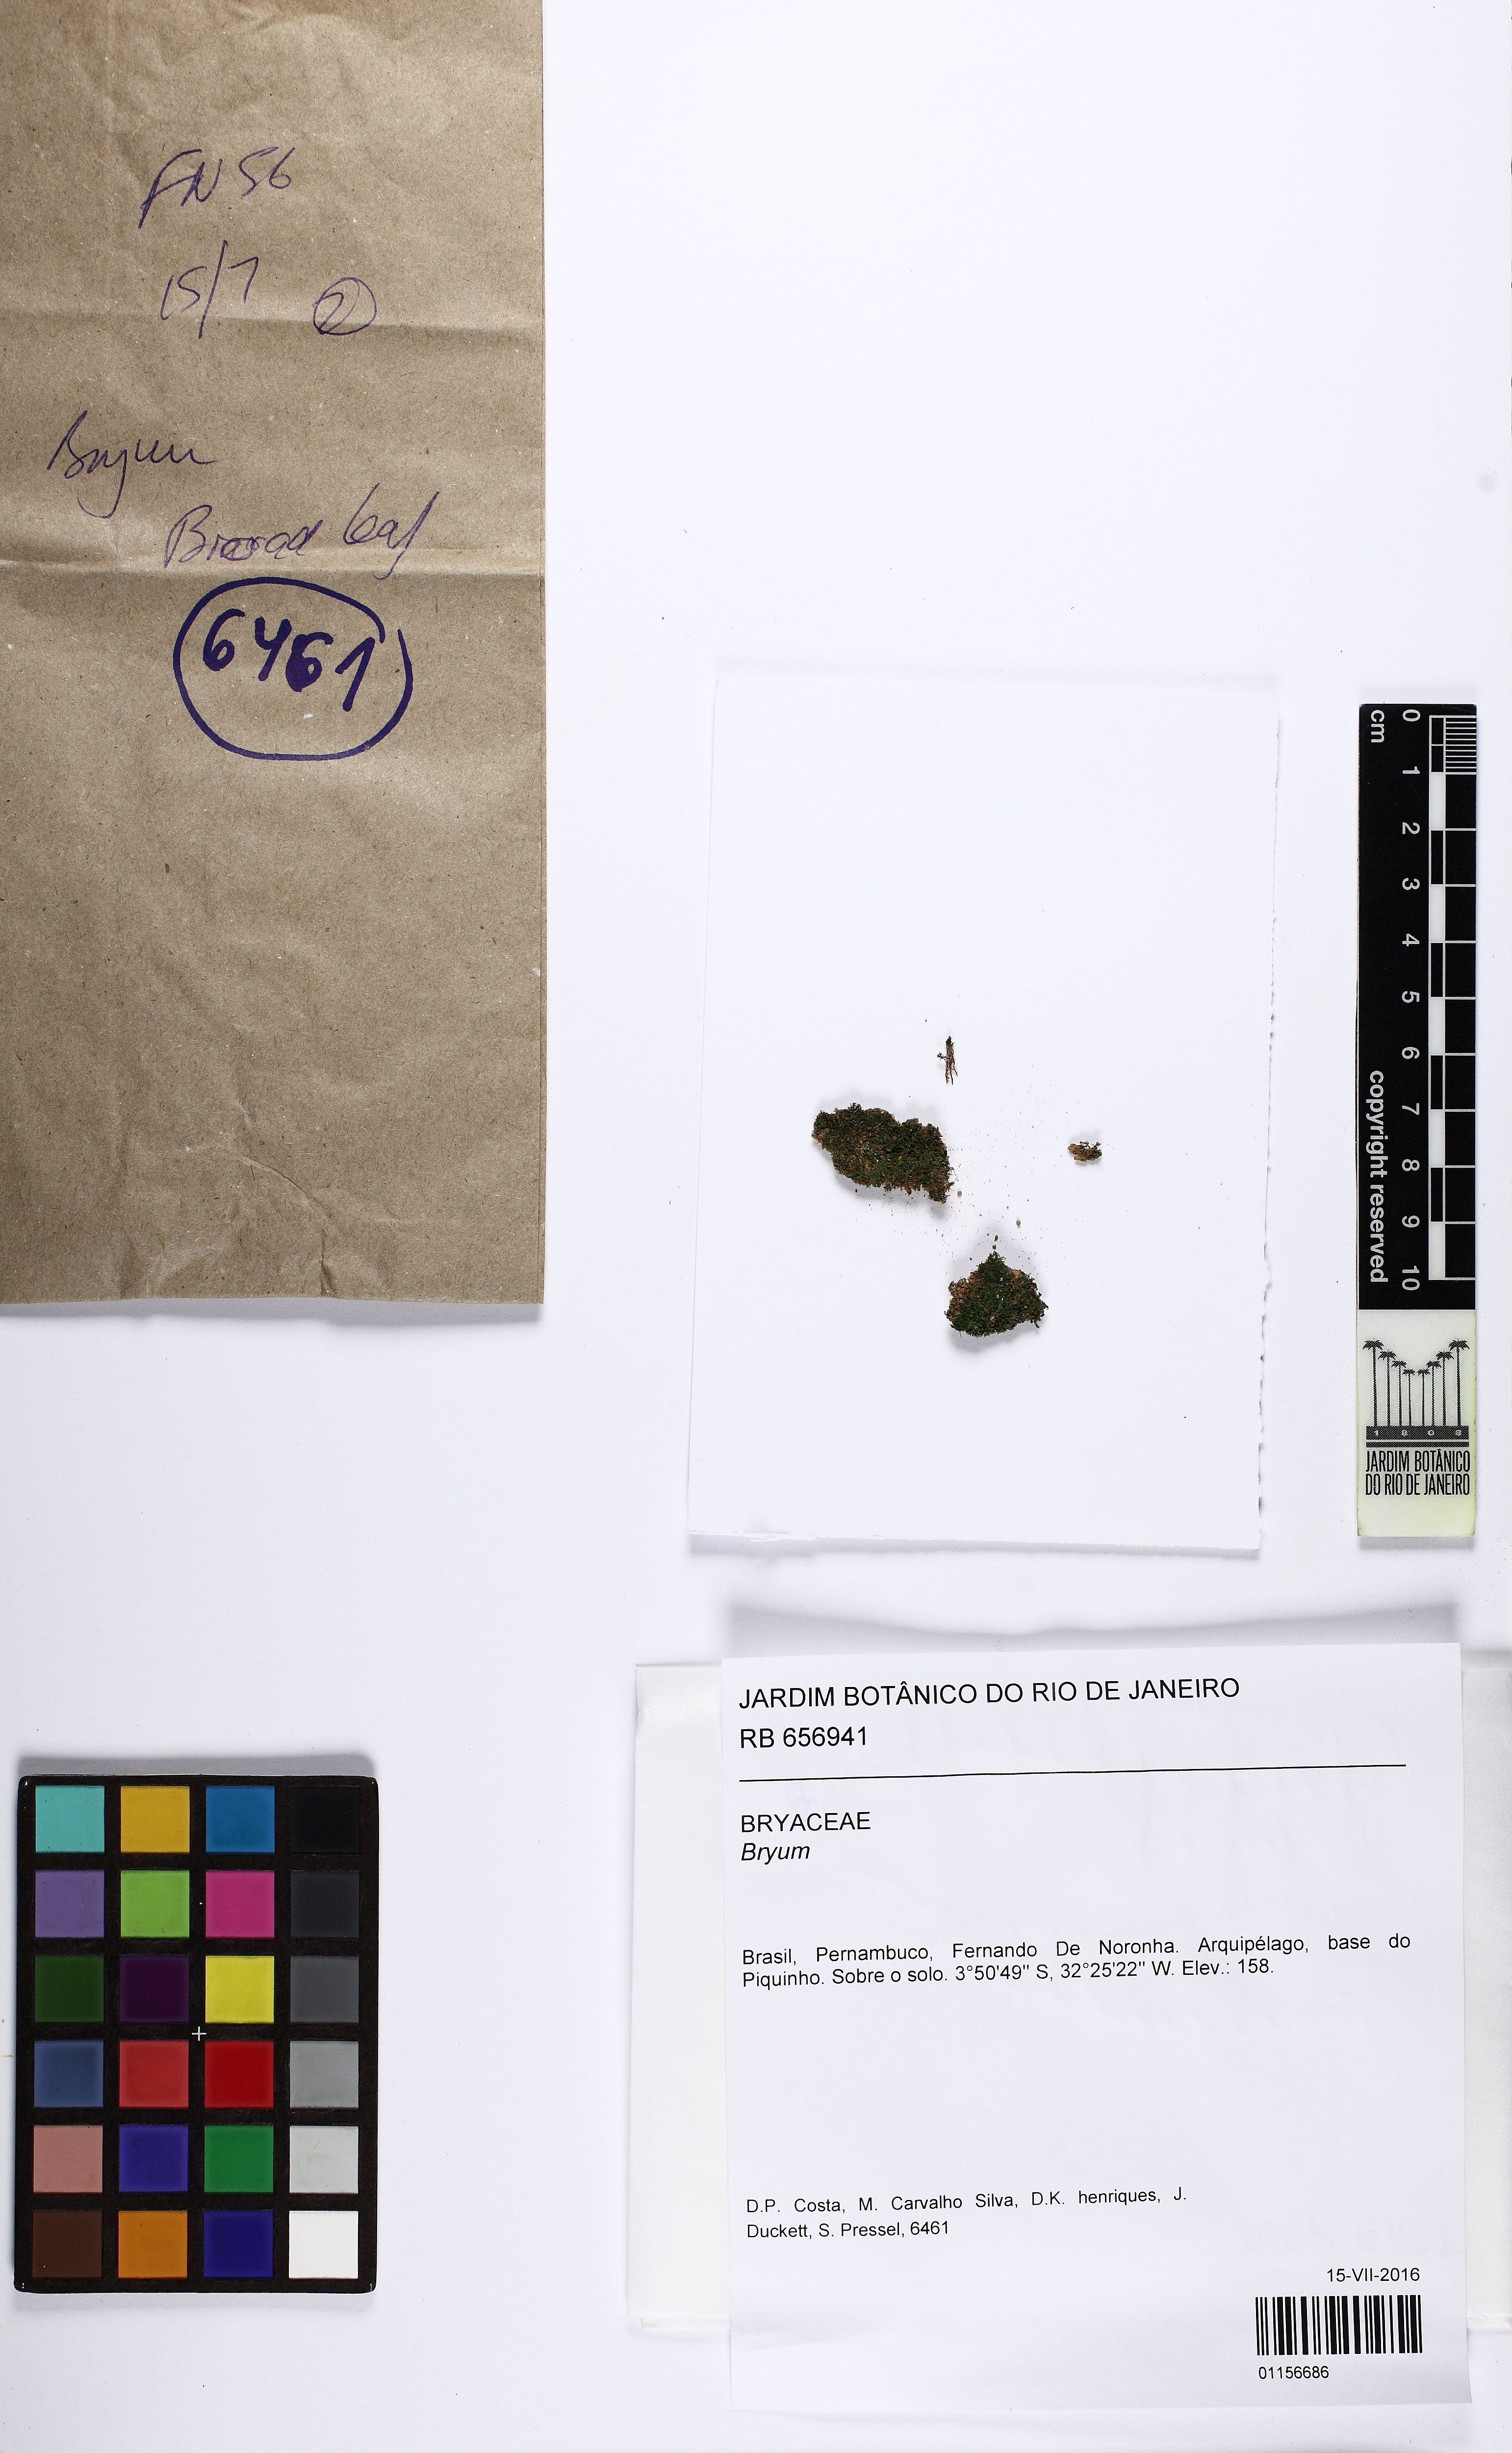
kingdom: Plantae
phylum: Bryophyta
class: Bryopsida
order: Bryales
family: Bryaceae
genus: Bryum
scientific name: Bryum
